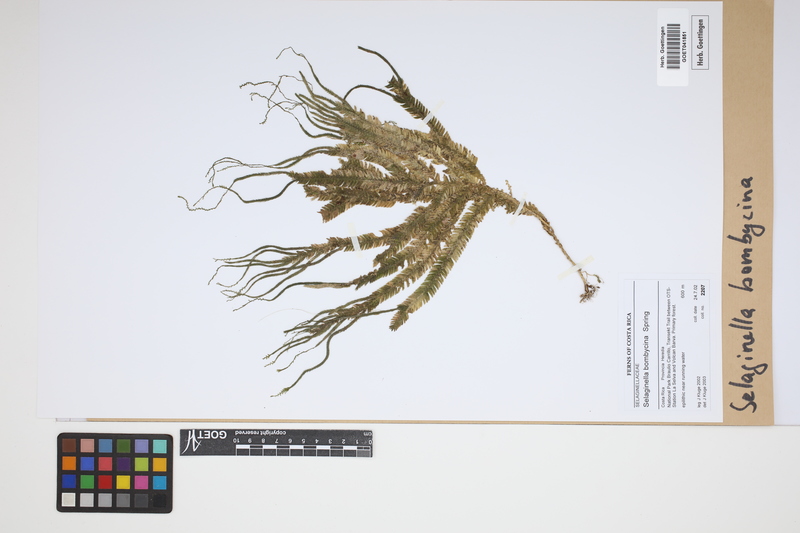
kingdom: Plantae
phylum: Tracheophyta
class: Lycopodiopsida
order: Selaginellales
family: Selaginellaceae
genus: Selaginella
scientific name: Selaginella bombycina
